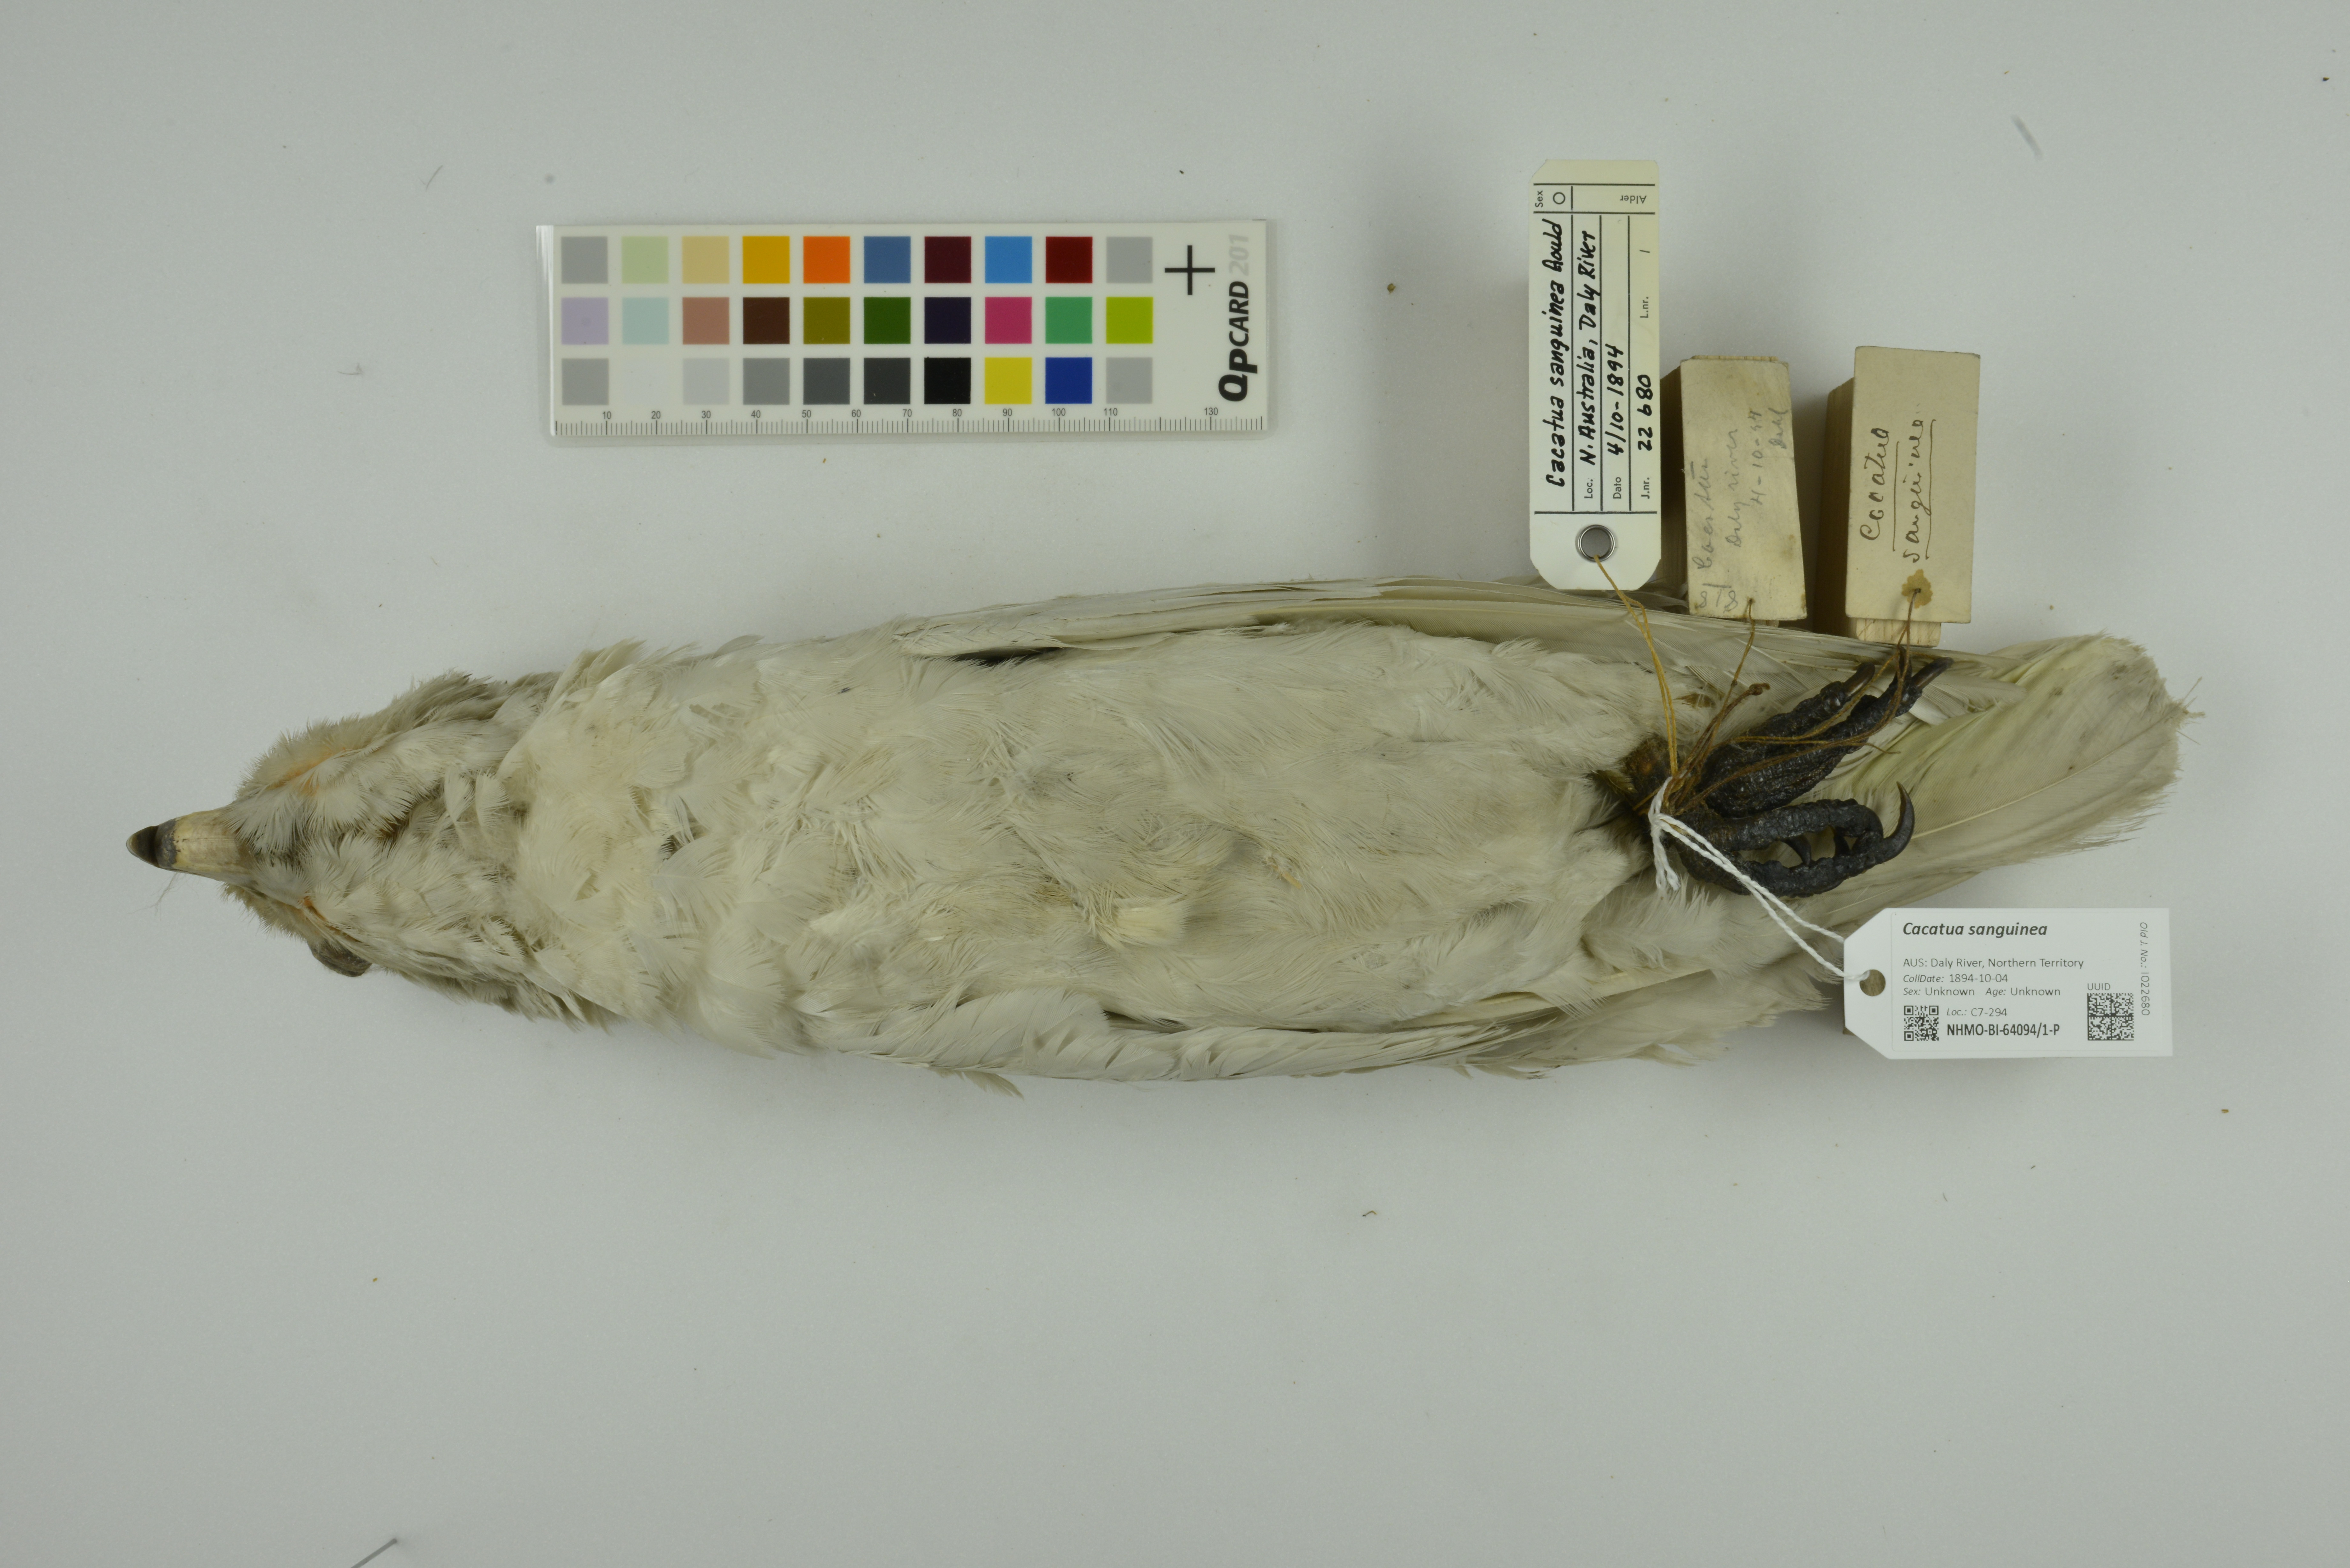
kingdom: Animalia
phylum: Chordata
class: Aves
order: Psittaciformes
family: Psittacidae
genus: Cacatua
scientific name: Cacatua sanguinea
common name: Little corella
